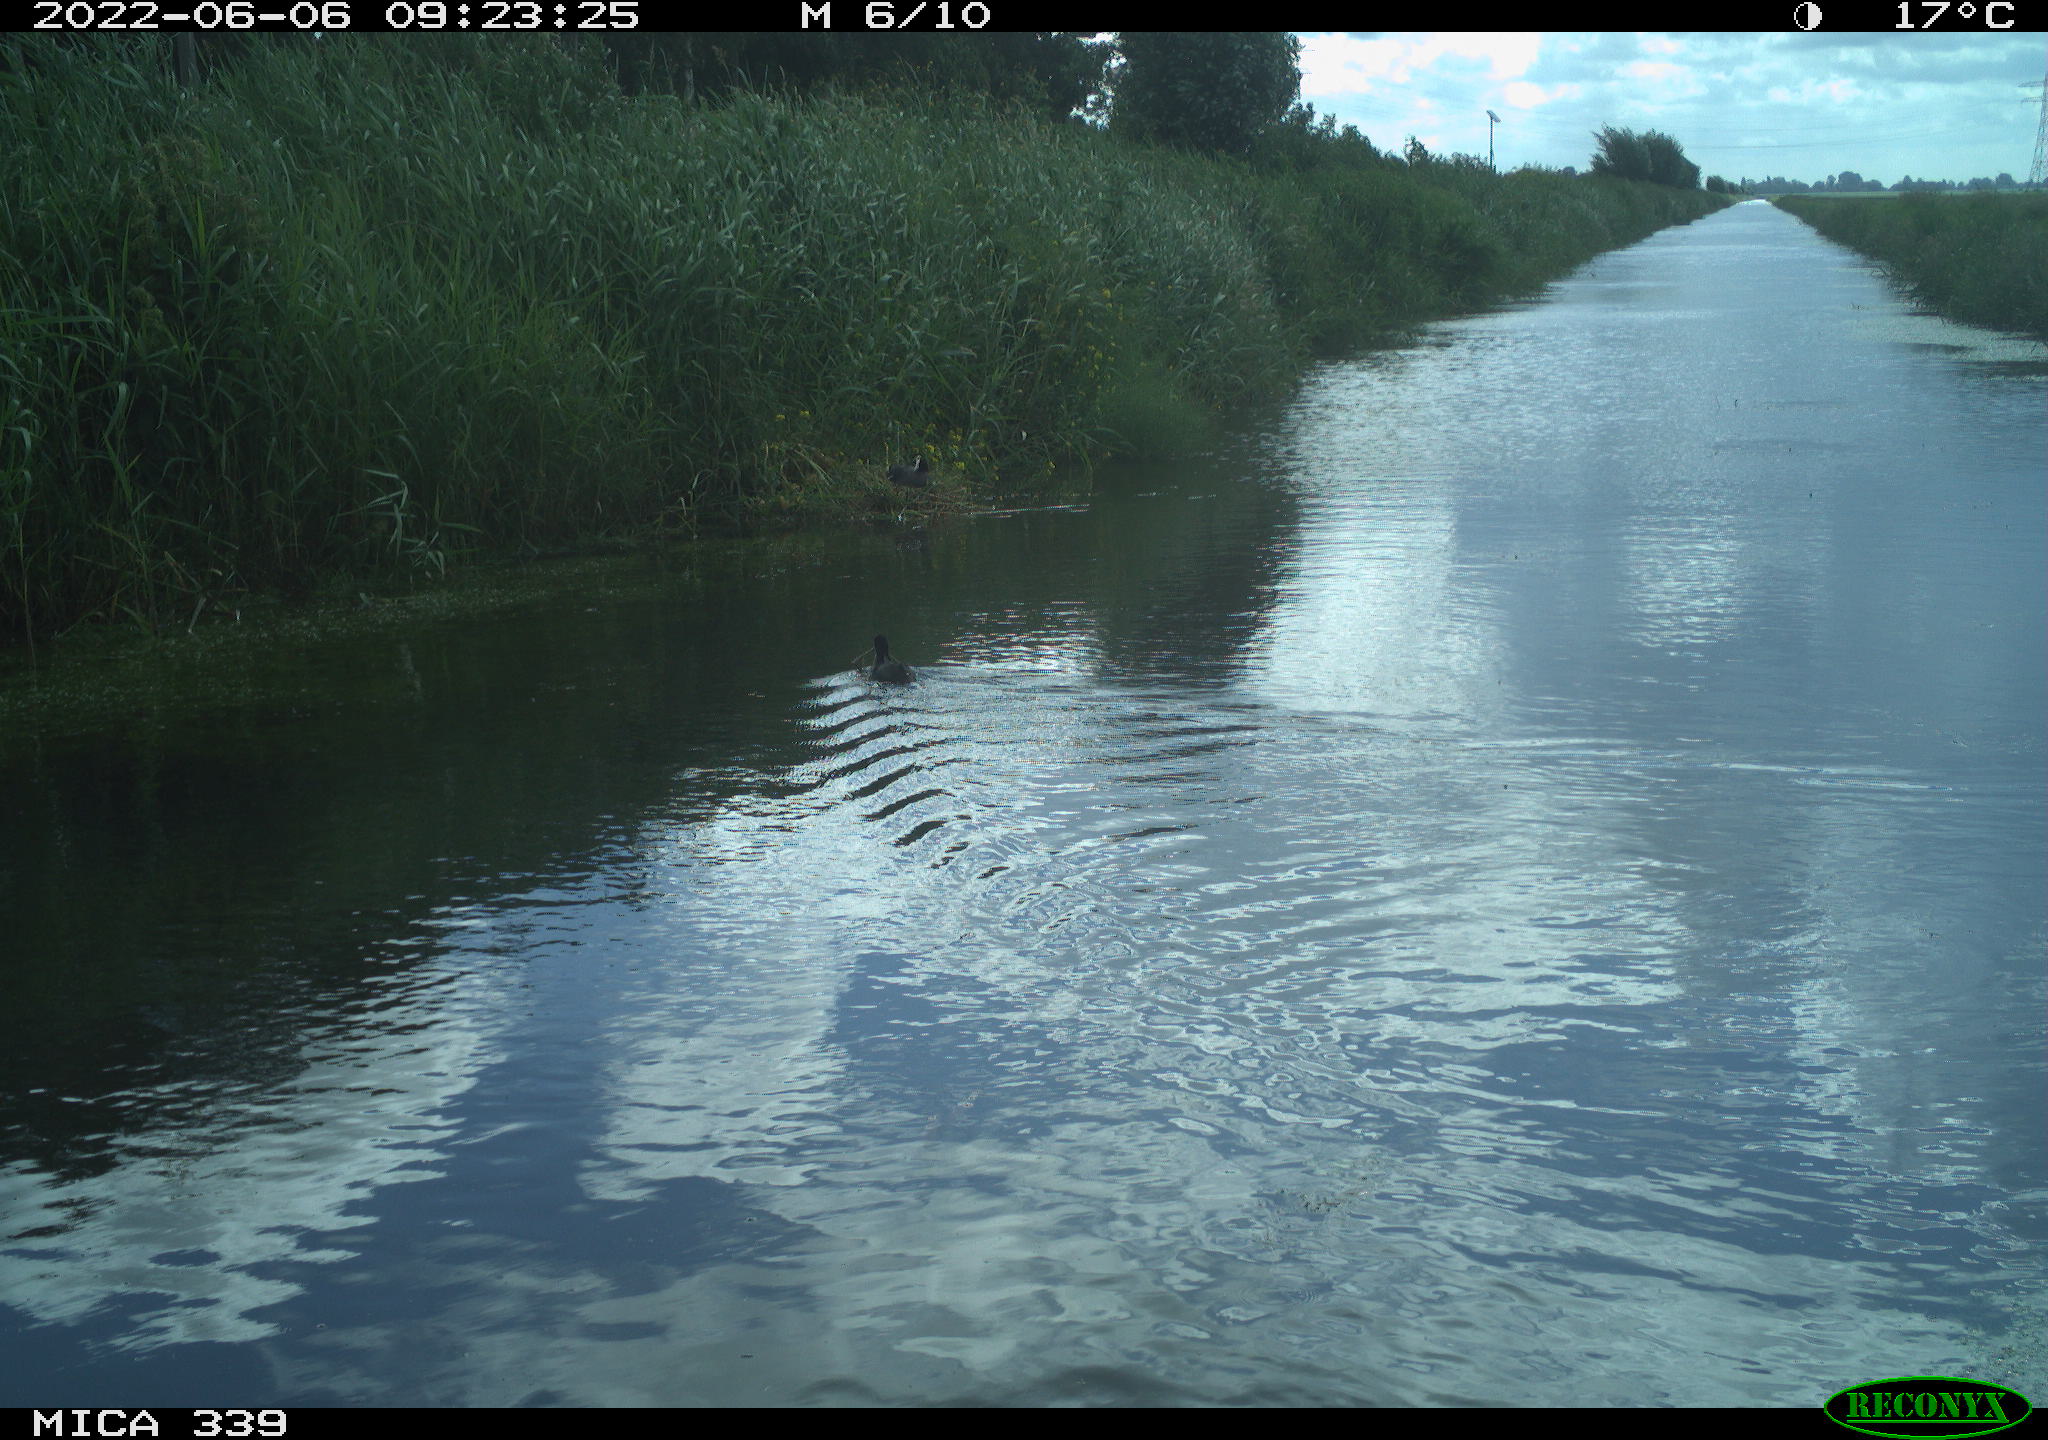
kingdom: Animalia
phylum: Chordata
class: Aves
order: Gruiformes
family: Rallidae
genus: Fulica
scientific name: Fulica atra
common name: Eurasian coot
